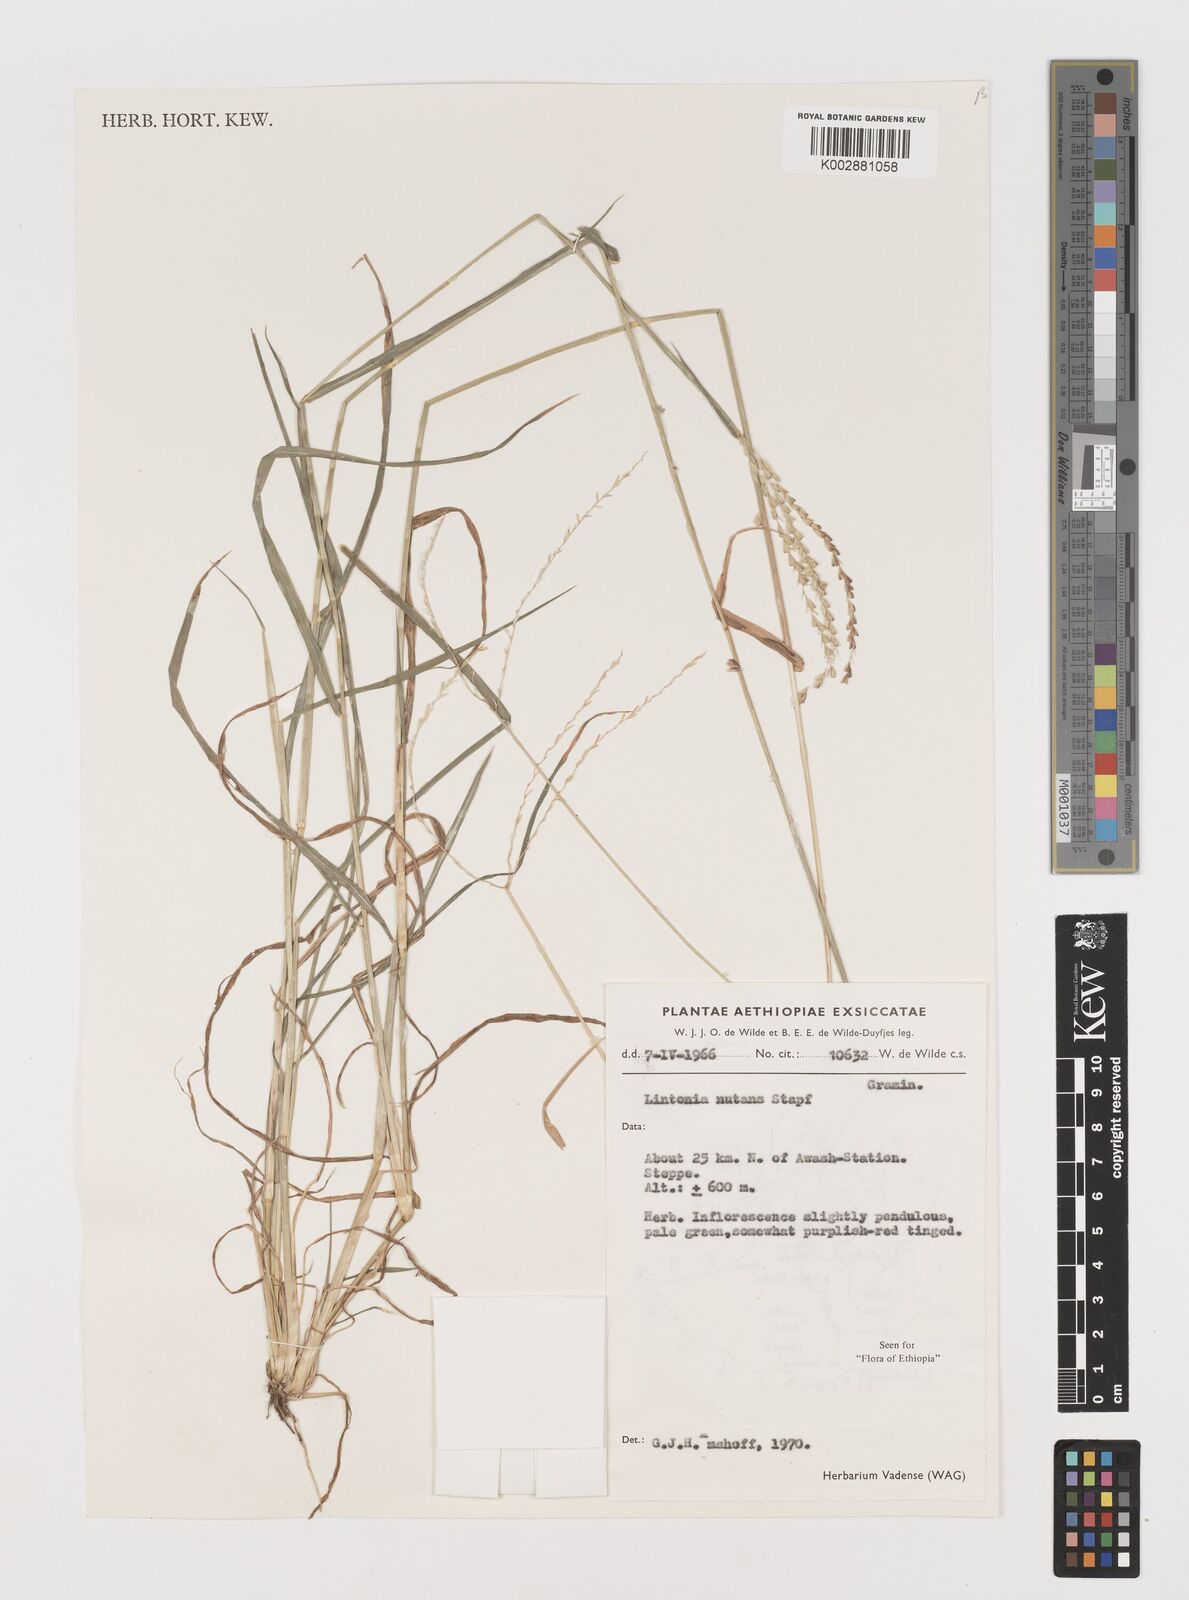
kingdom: Plantae
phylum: Tracheophyta
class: Liliopsida
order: Poales
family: Poaceae
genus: Chloris
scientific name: Chloris nutans
